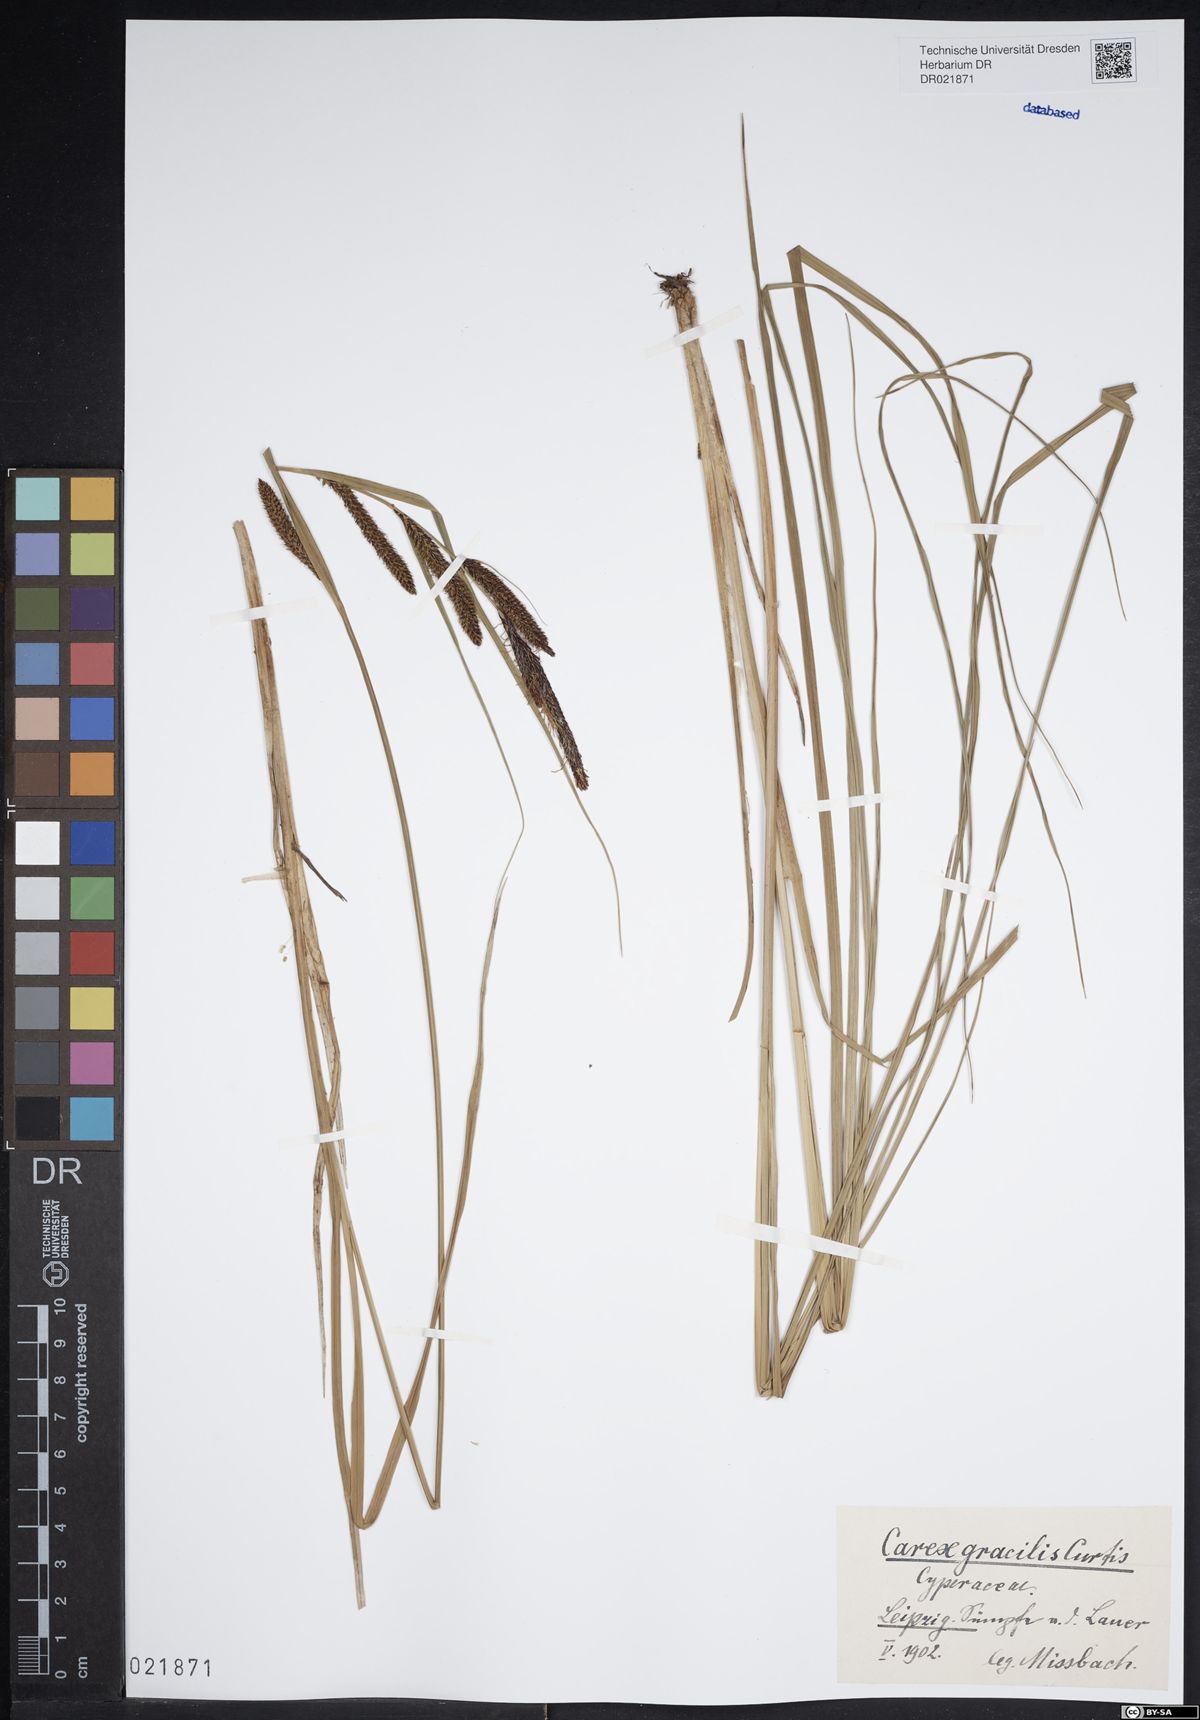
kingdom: Plantae
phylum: Tracheophyta
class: Liliopsida
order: Poales
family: Cyperaceae
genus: Carex
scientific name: Carex acuta
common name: Slender tufted-sedge
